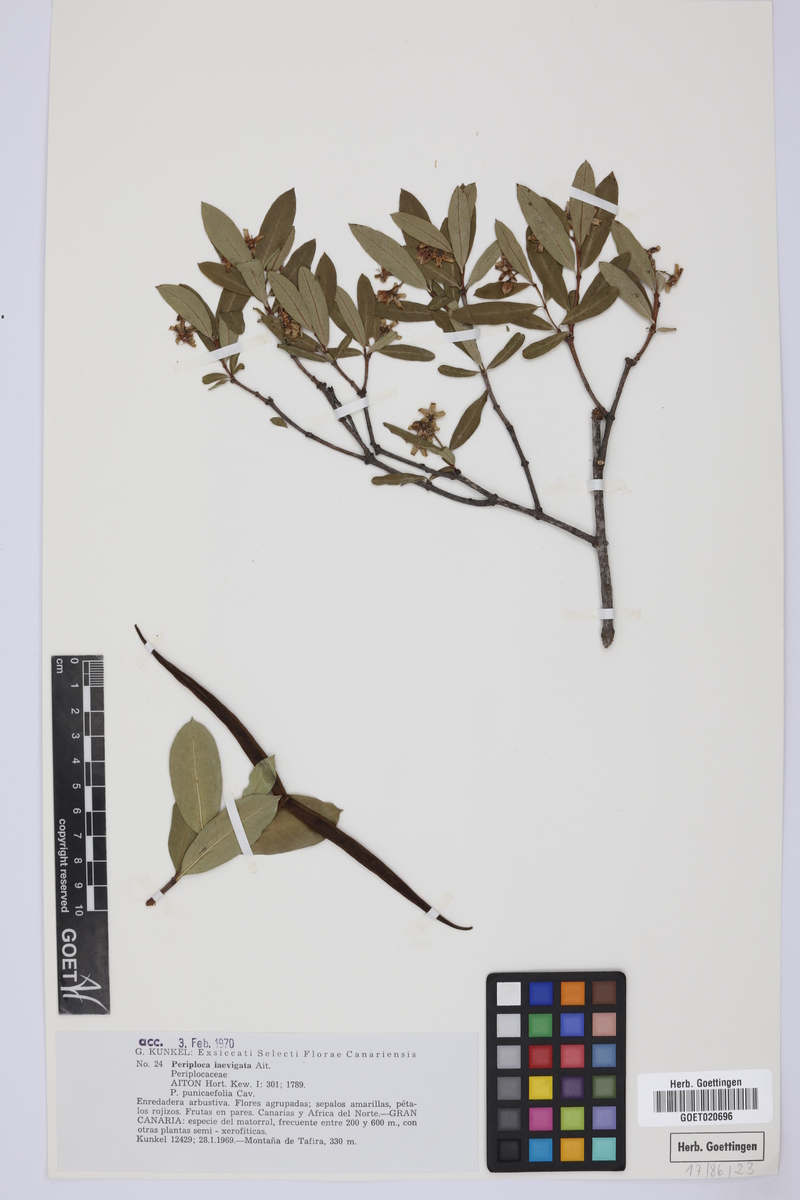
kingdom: Plantae
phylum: Tracheophyta
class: Magnoliopsida
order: Gentianales
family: Apocynaceae
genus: Periploca
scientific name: Periploca laevigata
